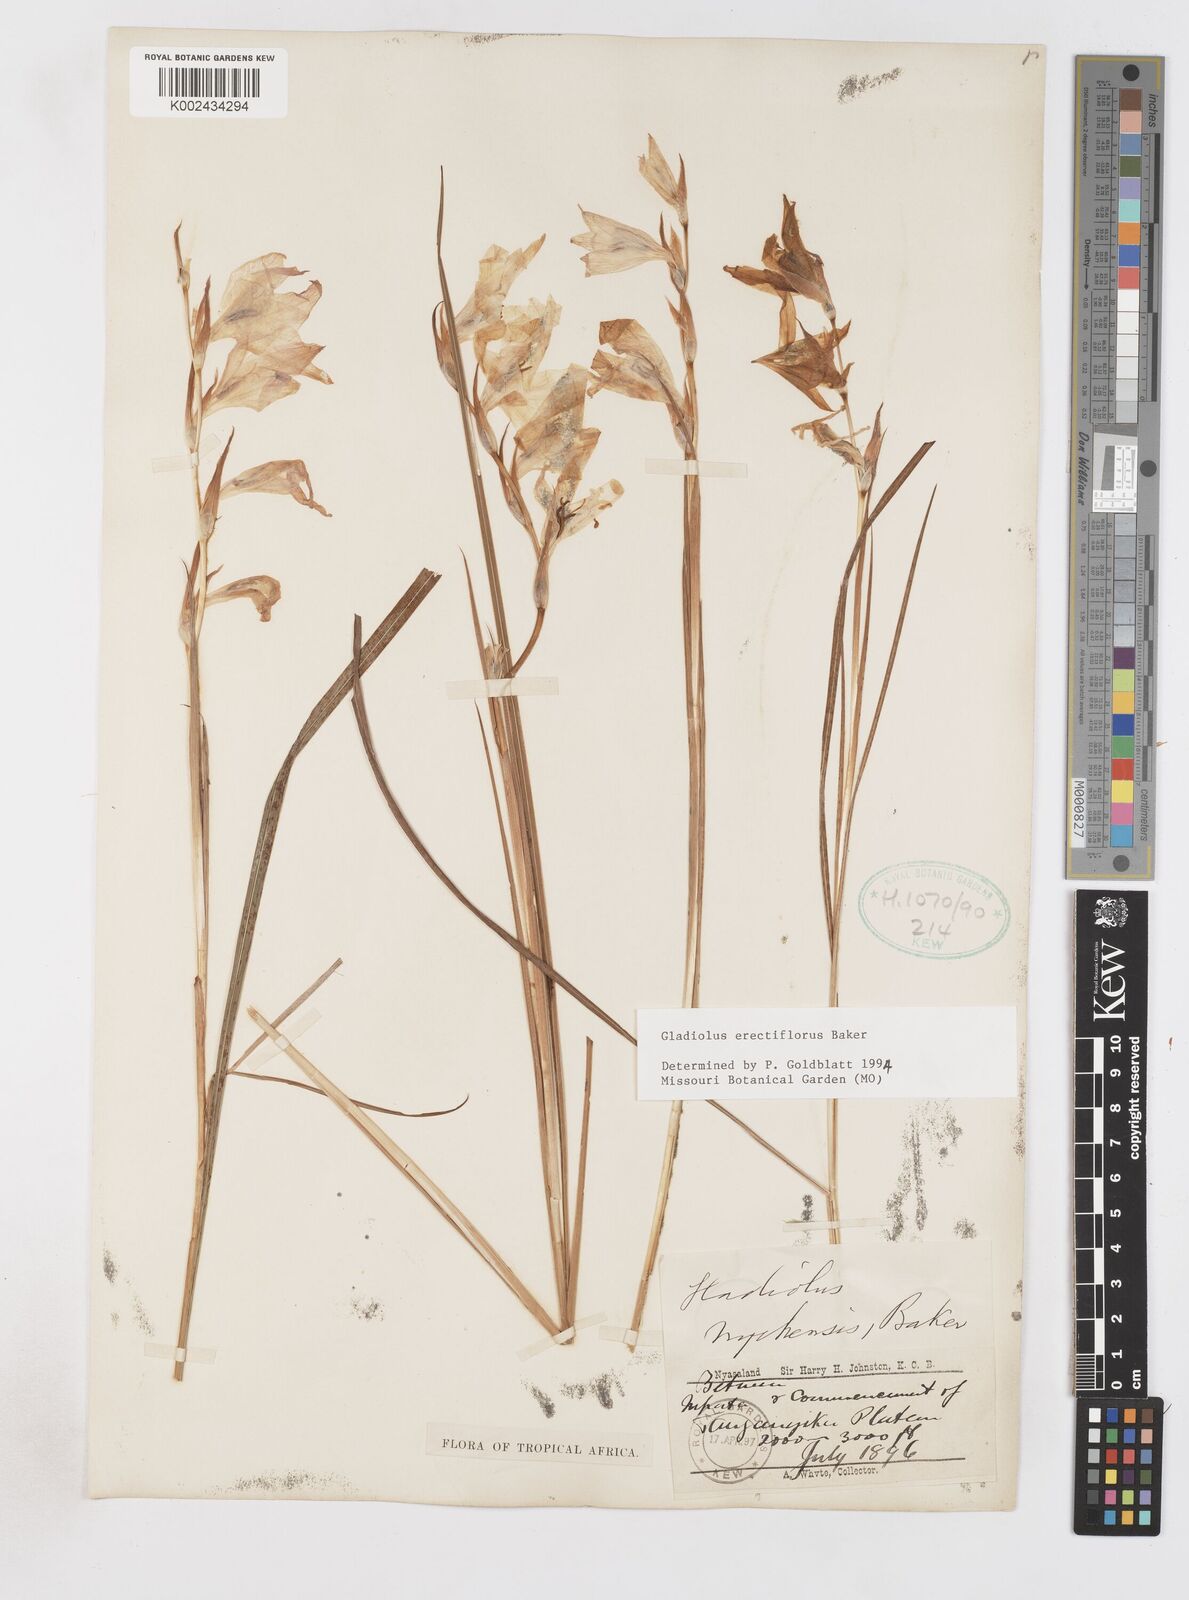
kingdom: Plantae
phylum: Tracheophyta
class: Liliopsida
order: Asparagales
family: Iridaceae
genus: Gladiolus
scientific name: Gladiolus erectiflorus
